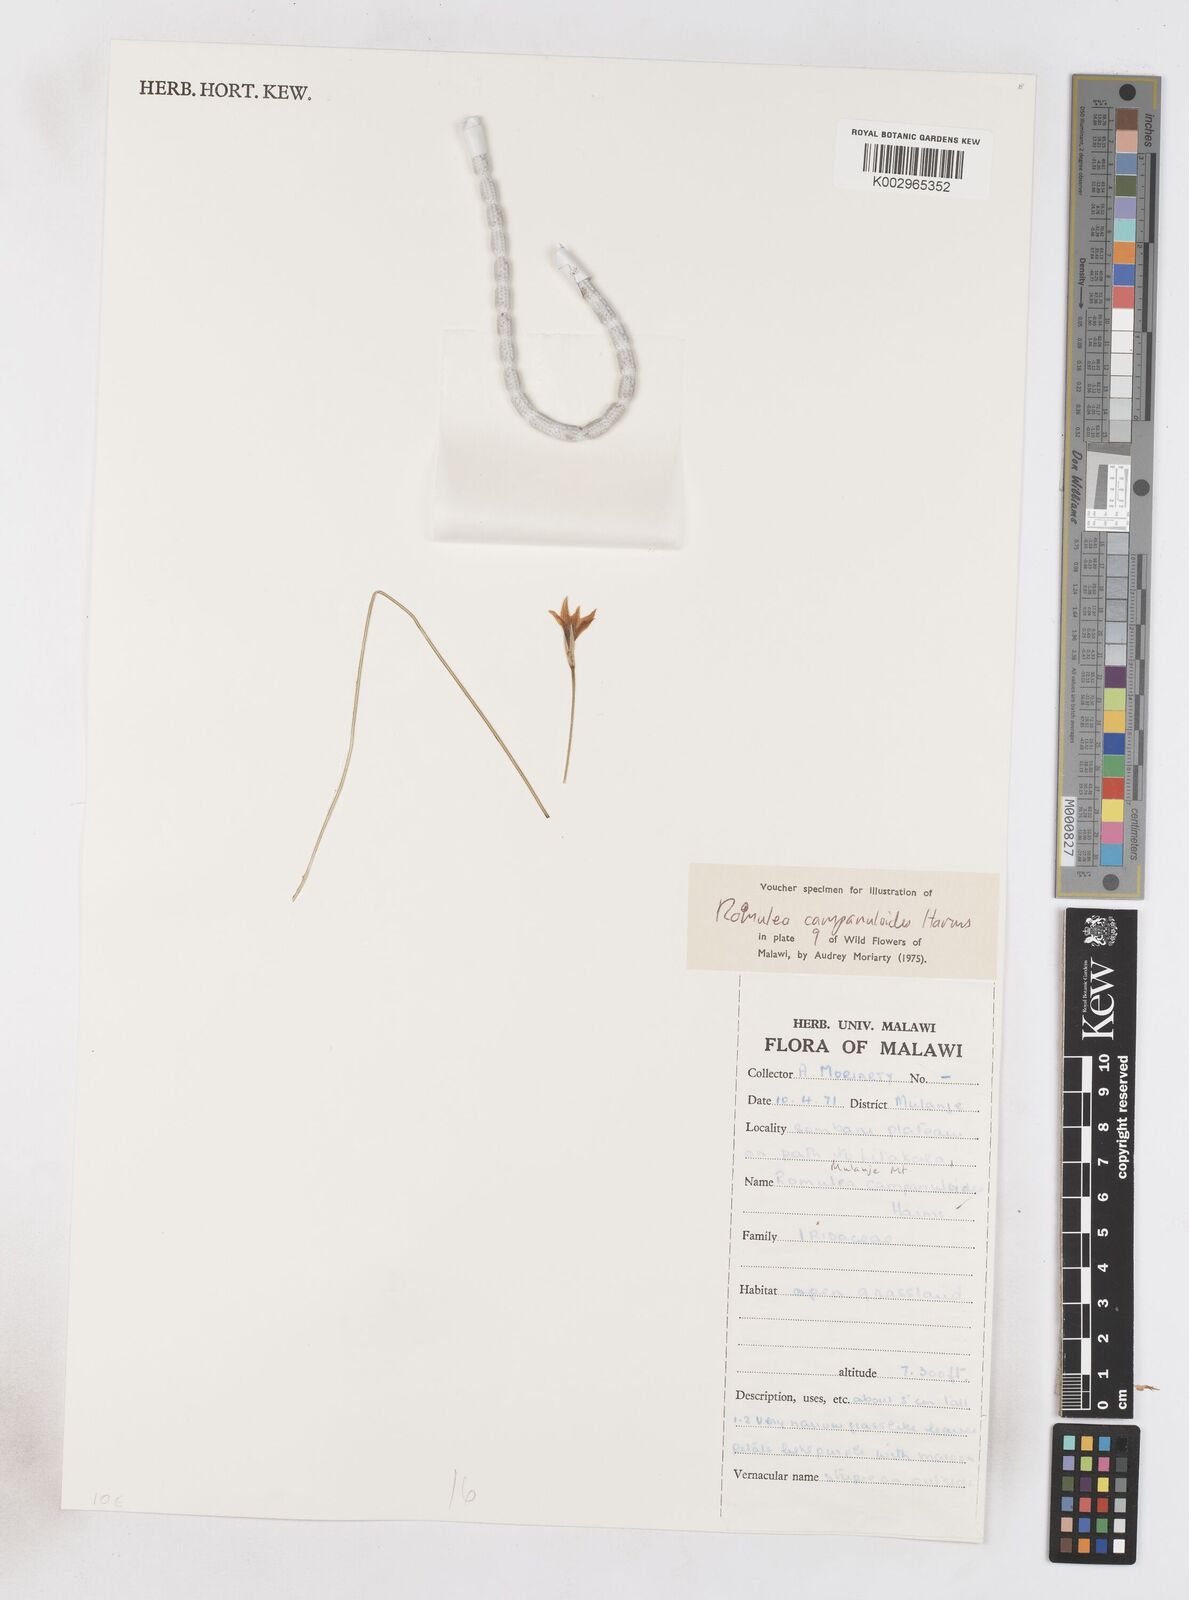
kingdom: Plantae
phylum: Tracheophyta
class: Liliopsida
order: Asparagales
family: Iridaceae
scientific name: Iridaceae
